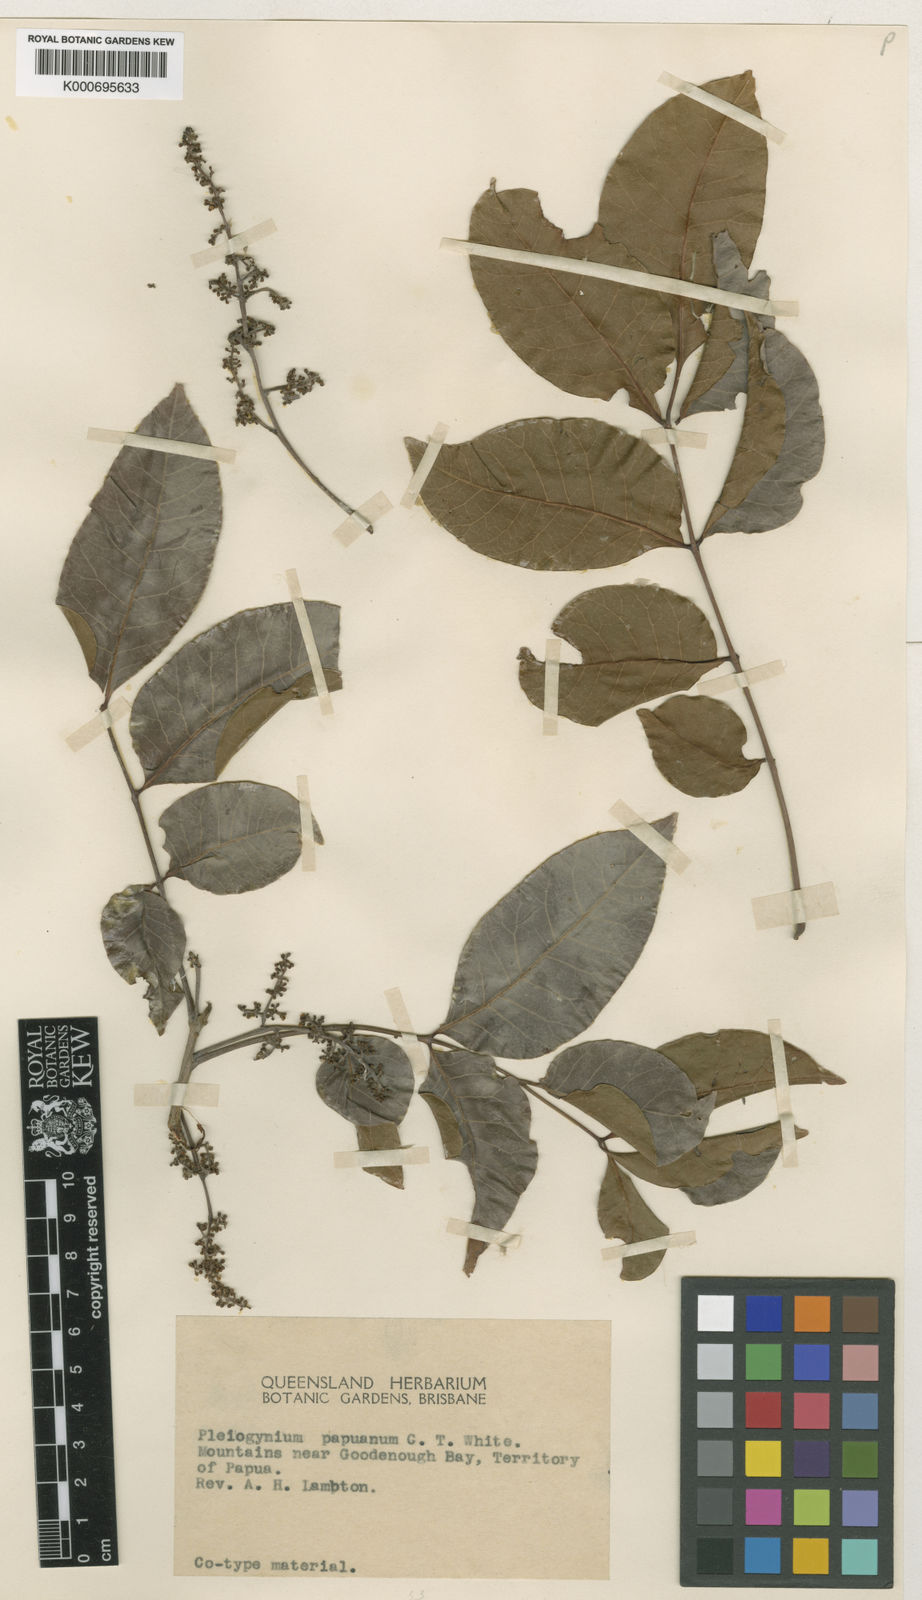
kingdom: Plantae
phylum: Tracheophyta
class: Magnoliopsida
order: Sapindales
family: Anacardiaceae
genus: Pleiogynium
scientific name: Pleiogynium timoriense
